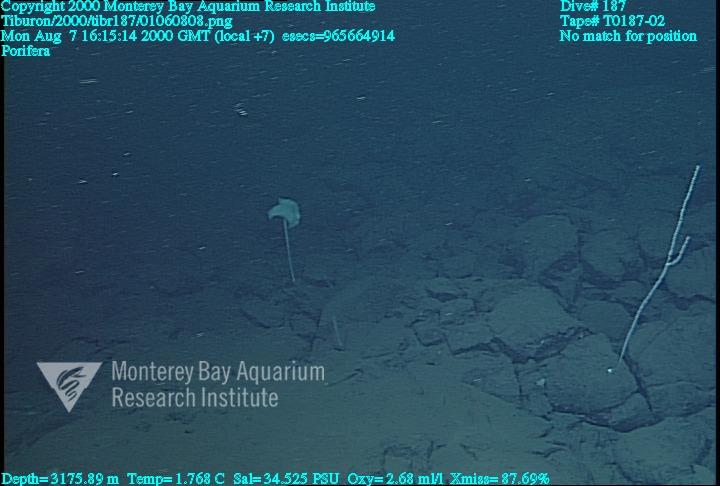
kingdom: Animalia
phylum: Porifera
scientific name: Porifera
